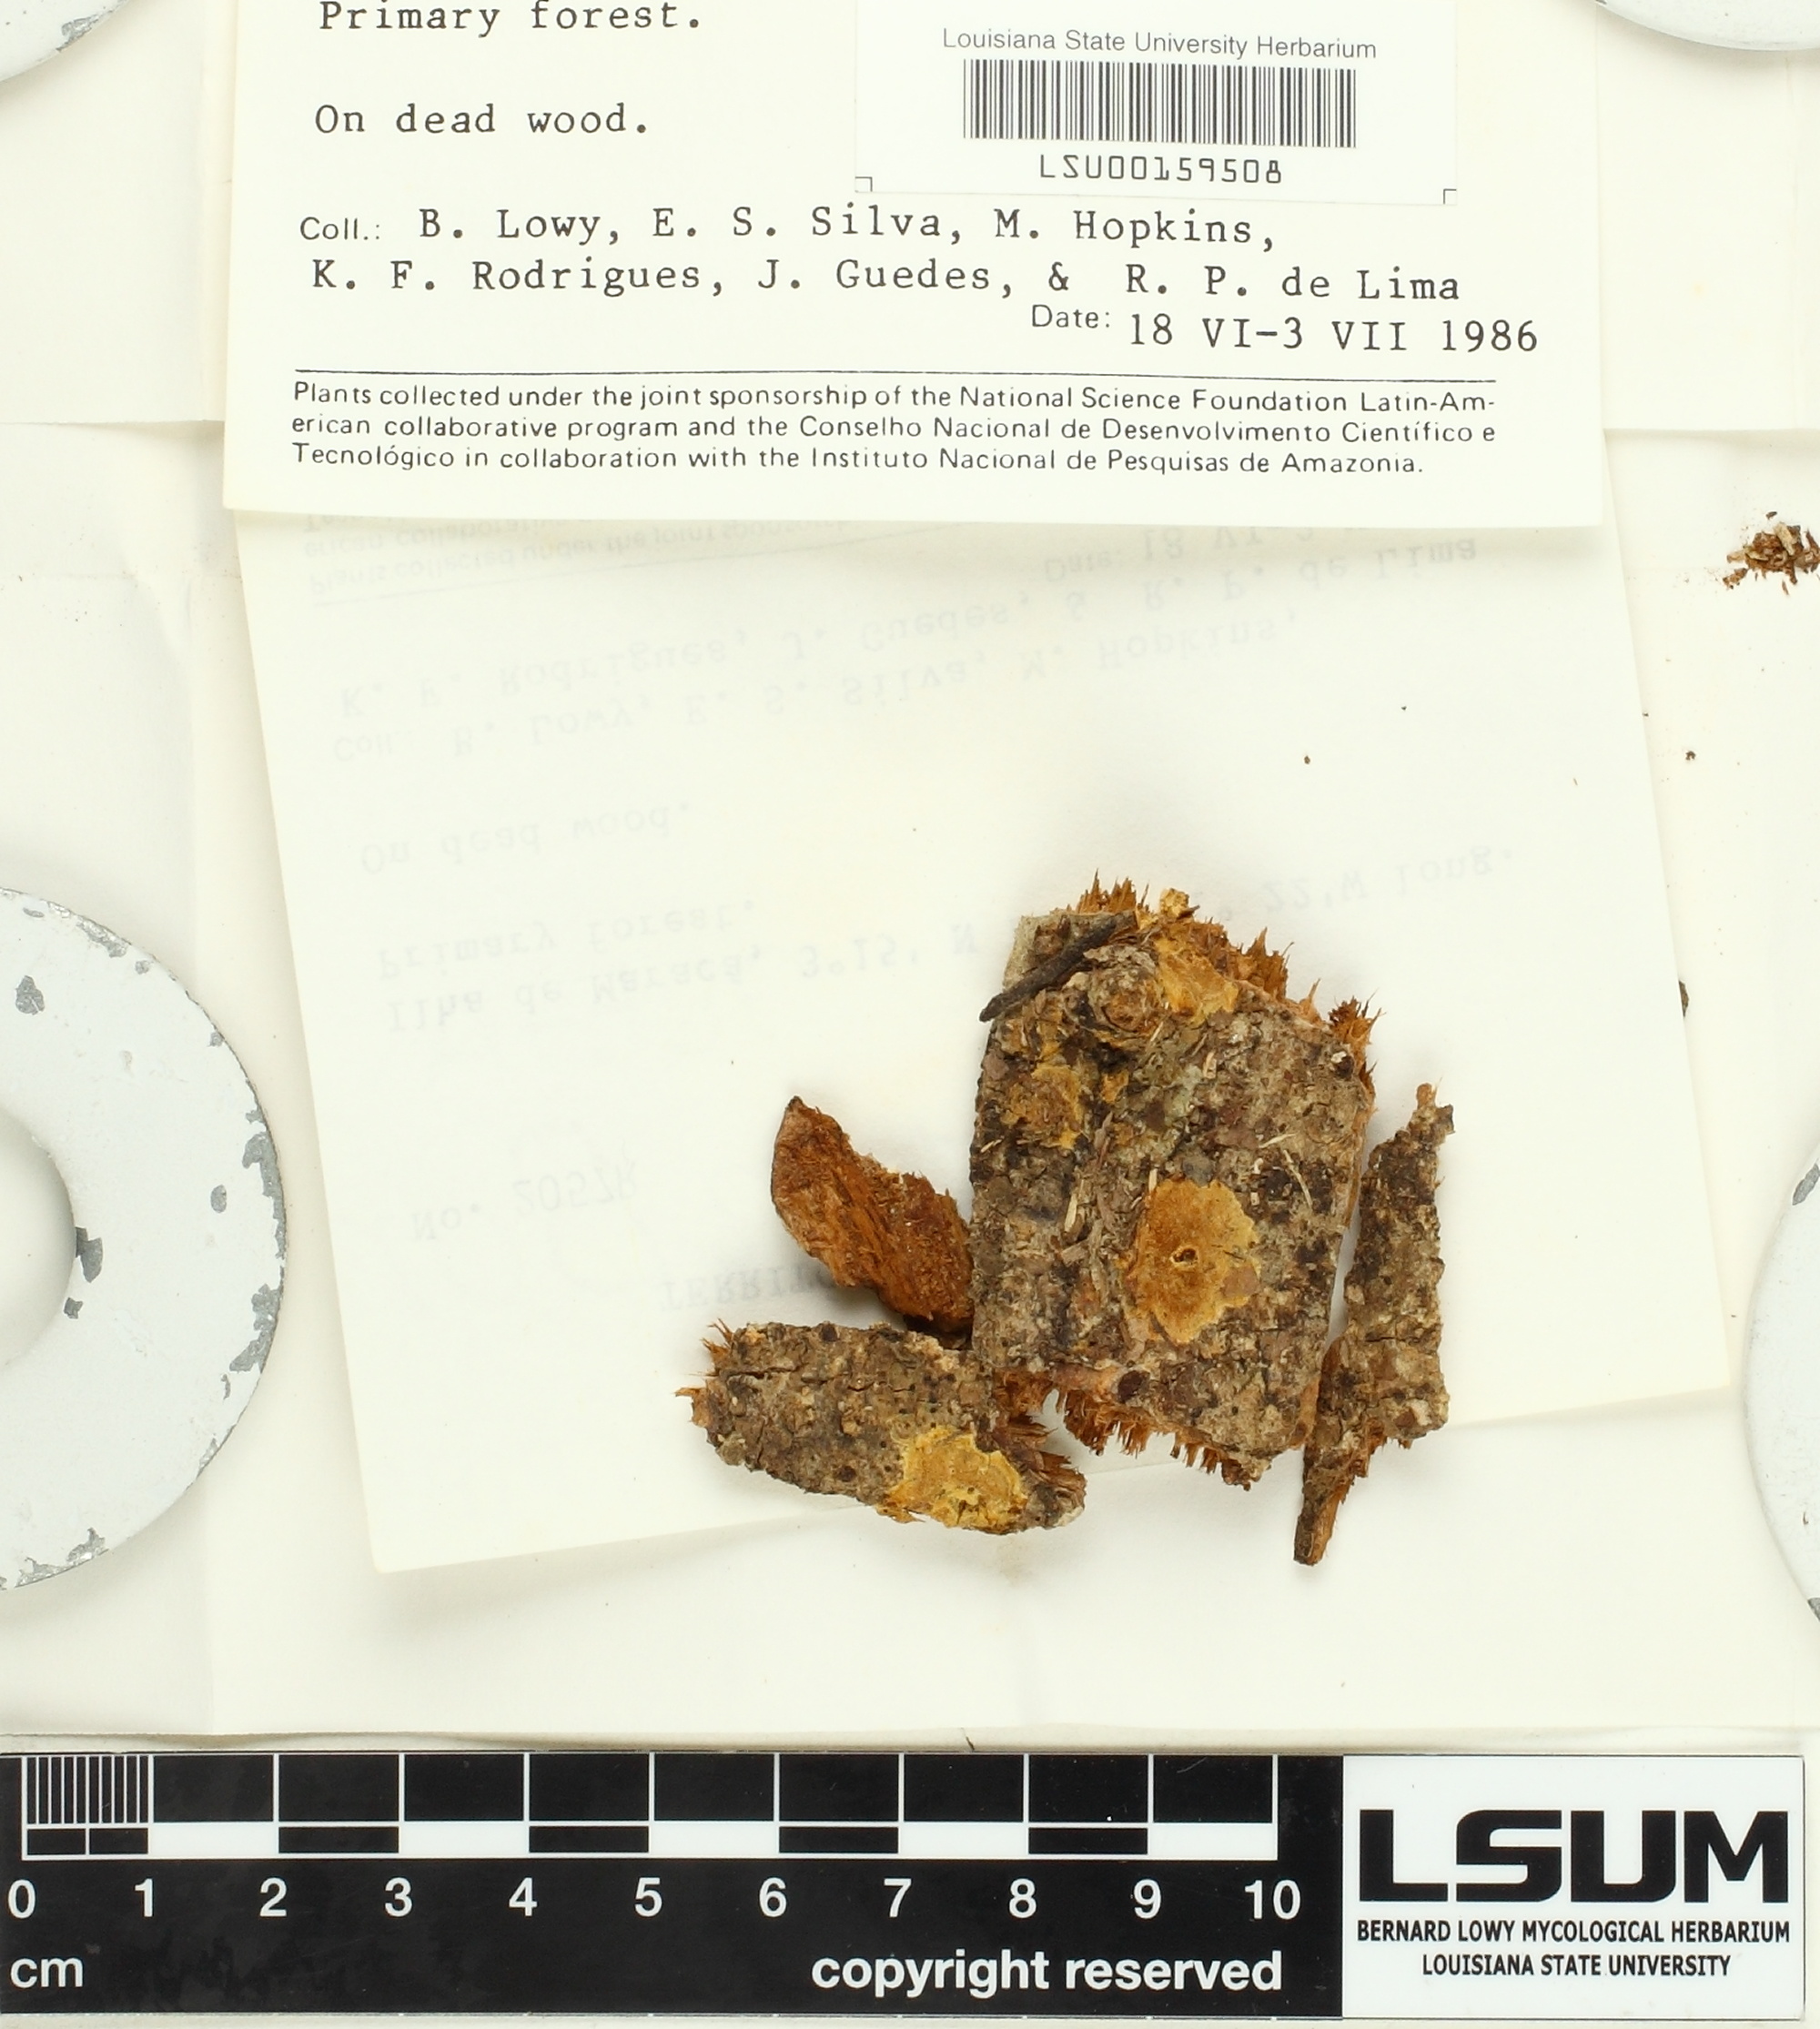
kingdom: Fungi
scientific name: Fungi
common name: Fungi
